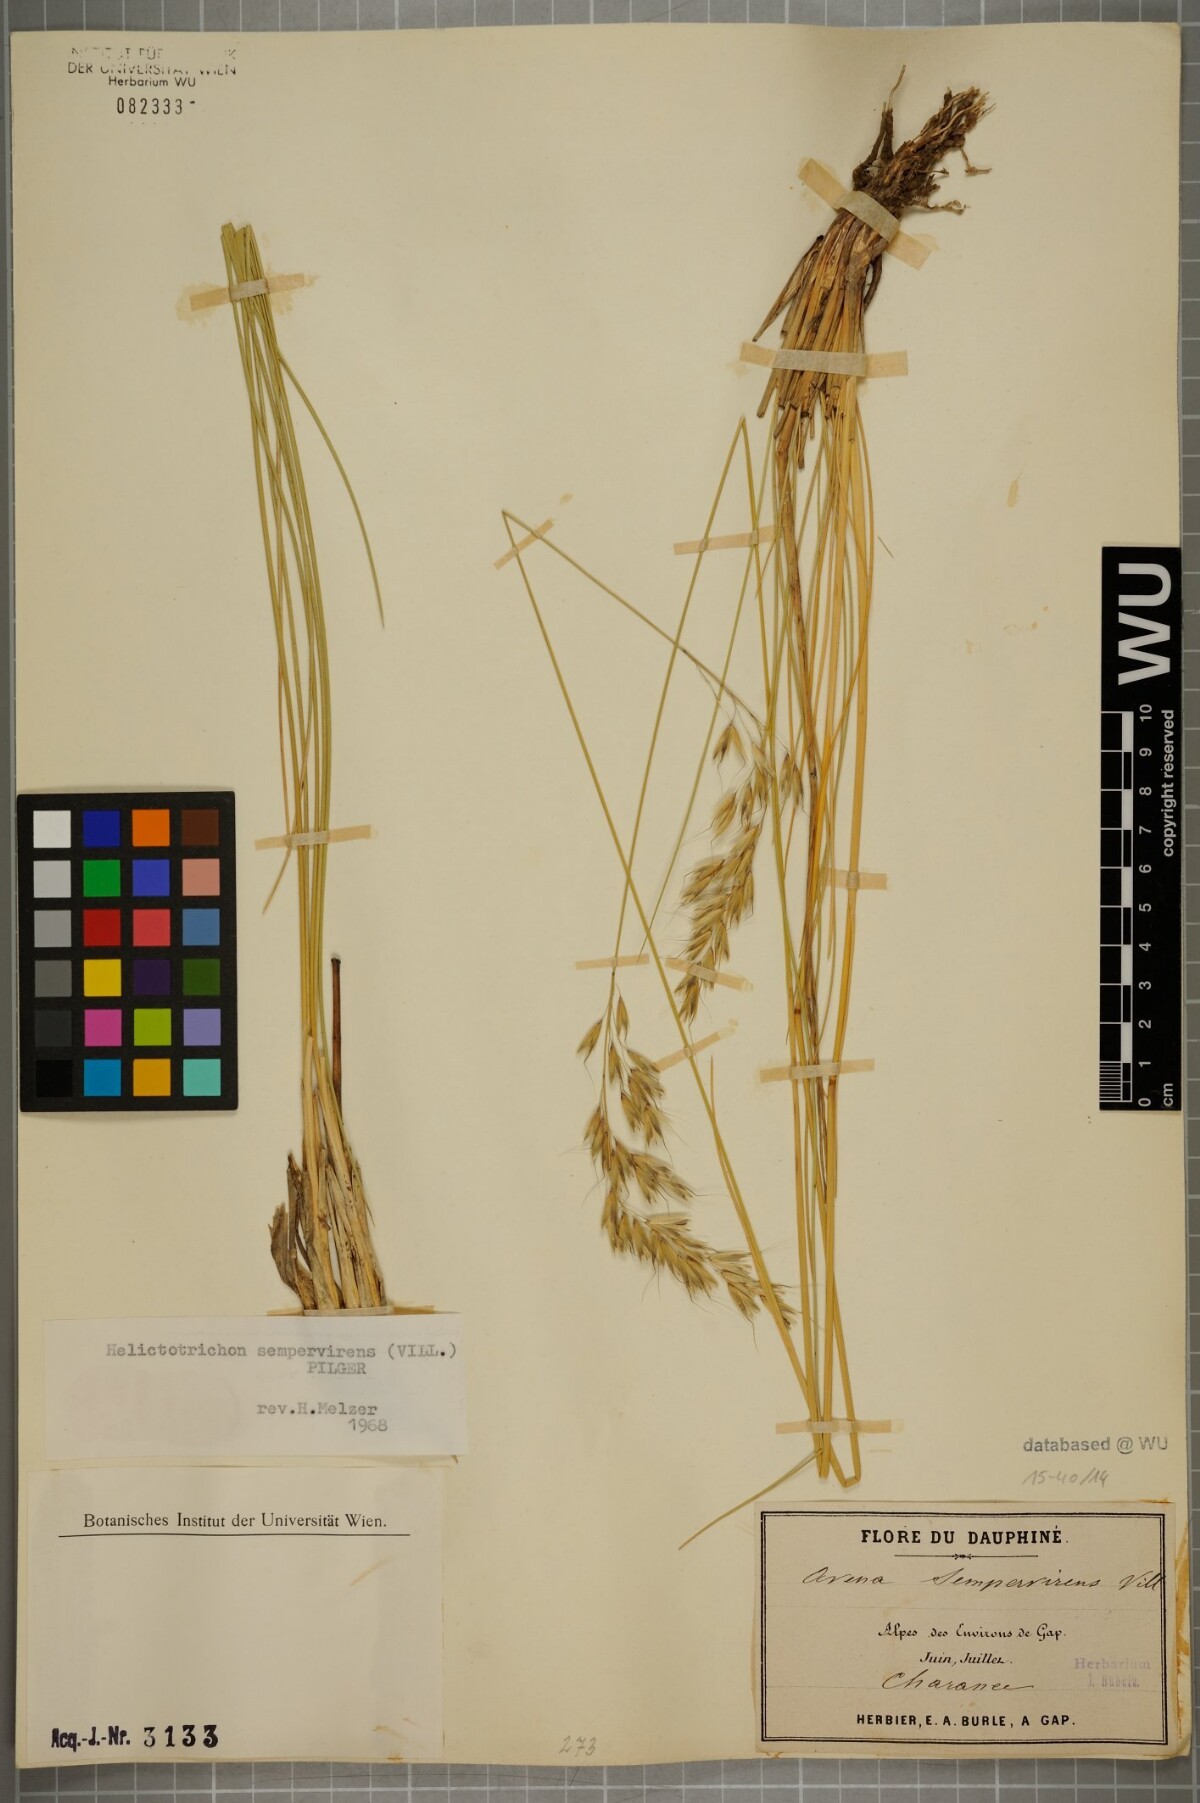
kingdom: Plantae
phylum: Tracheophyta
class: Liliopsida
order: Poales
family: Poaceae
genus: Helictotrichon
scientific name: Helictotrichon sempervirens
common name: Blue oat-grass
